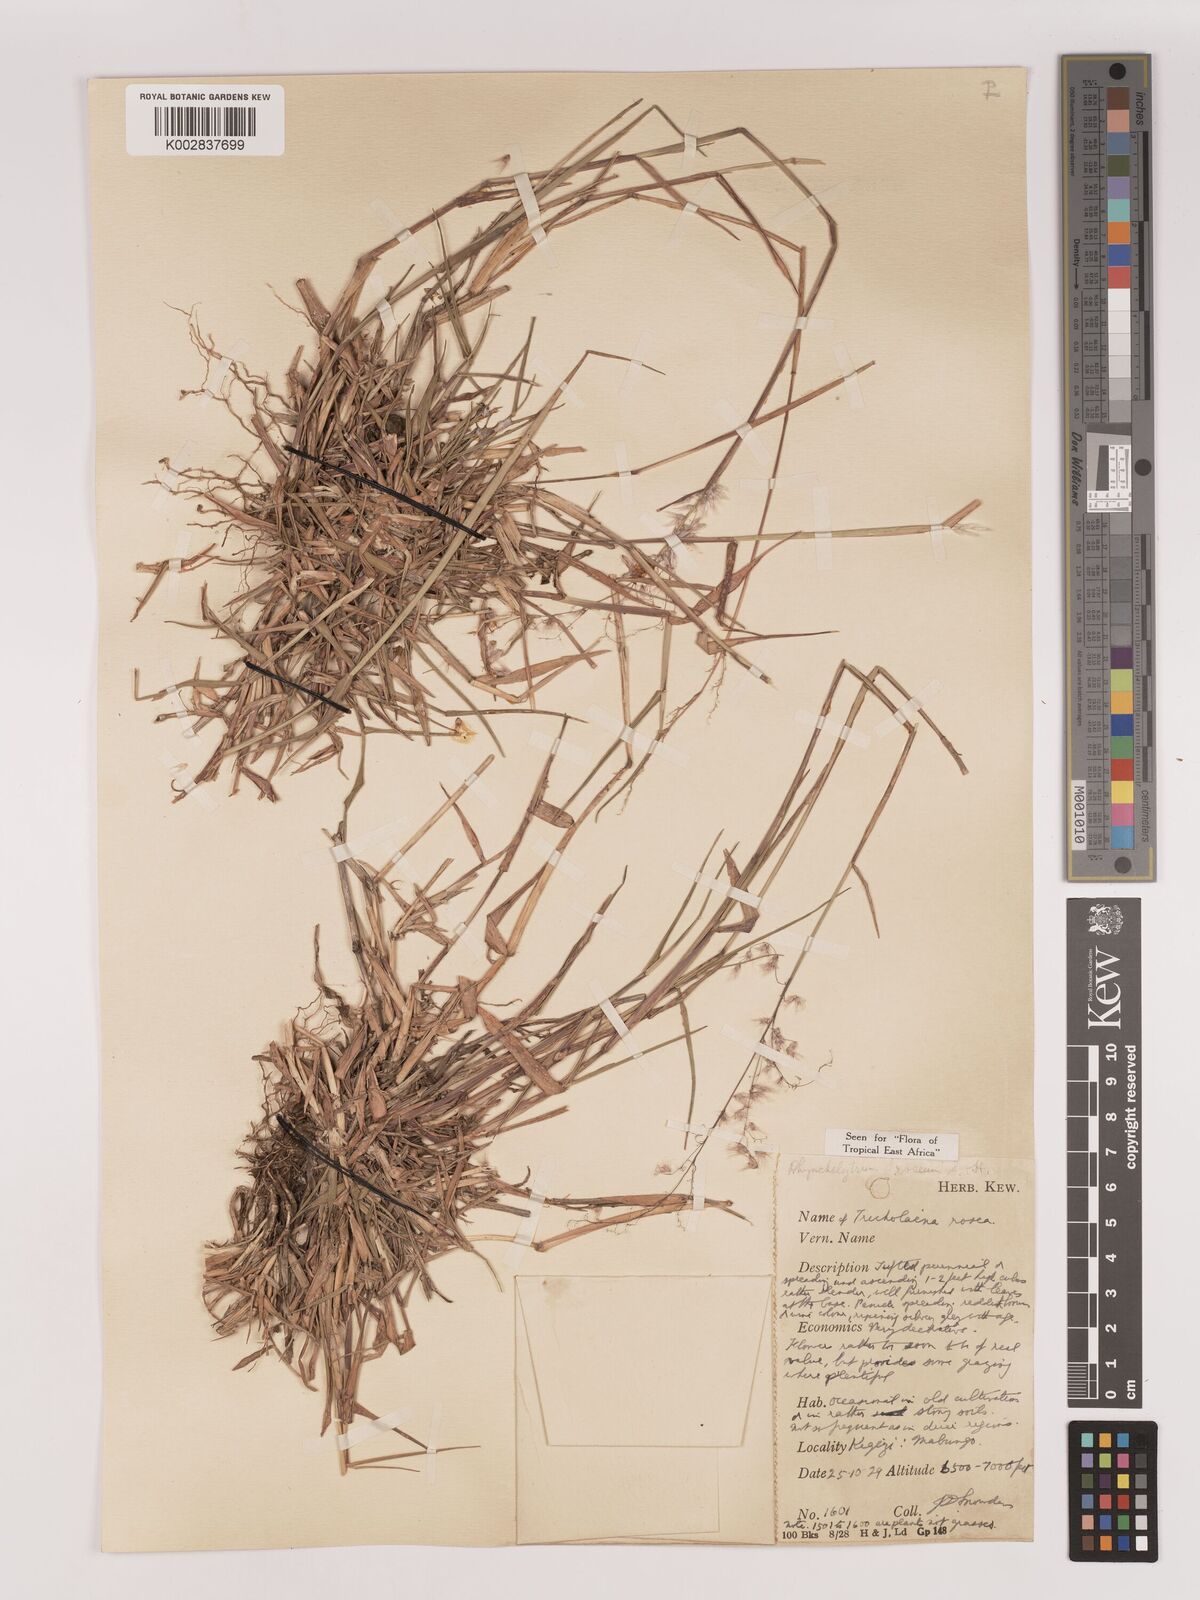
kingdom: Plantae
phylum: Tracheophyta
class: Liliopsida
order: Poales
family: Poaceae
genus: Melinis
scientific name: Melinis repens
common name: Rose natal grass
